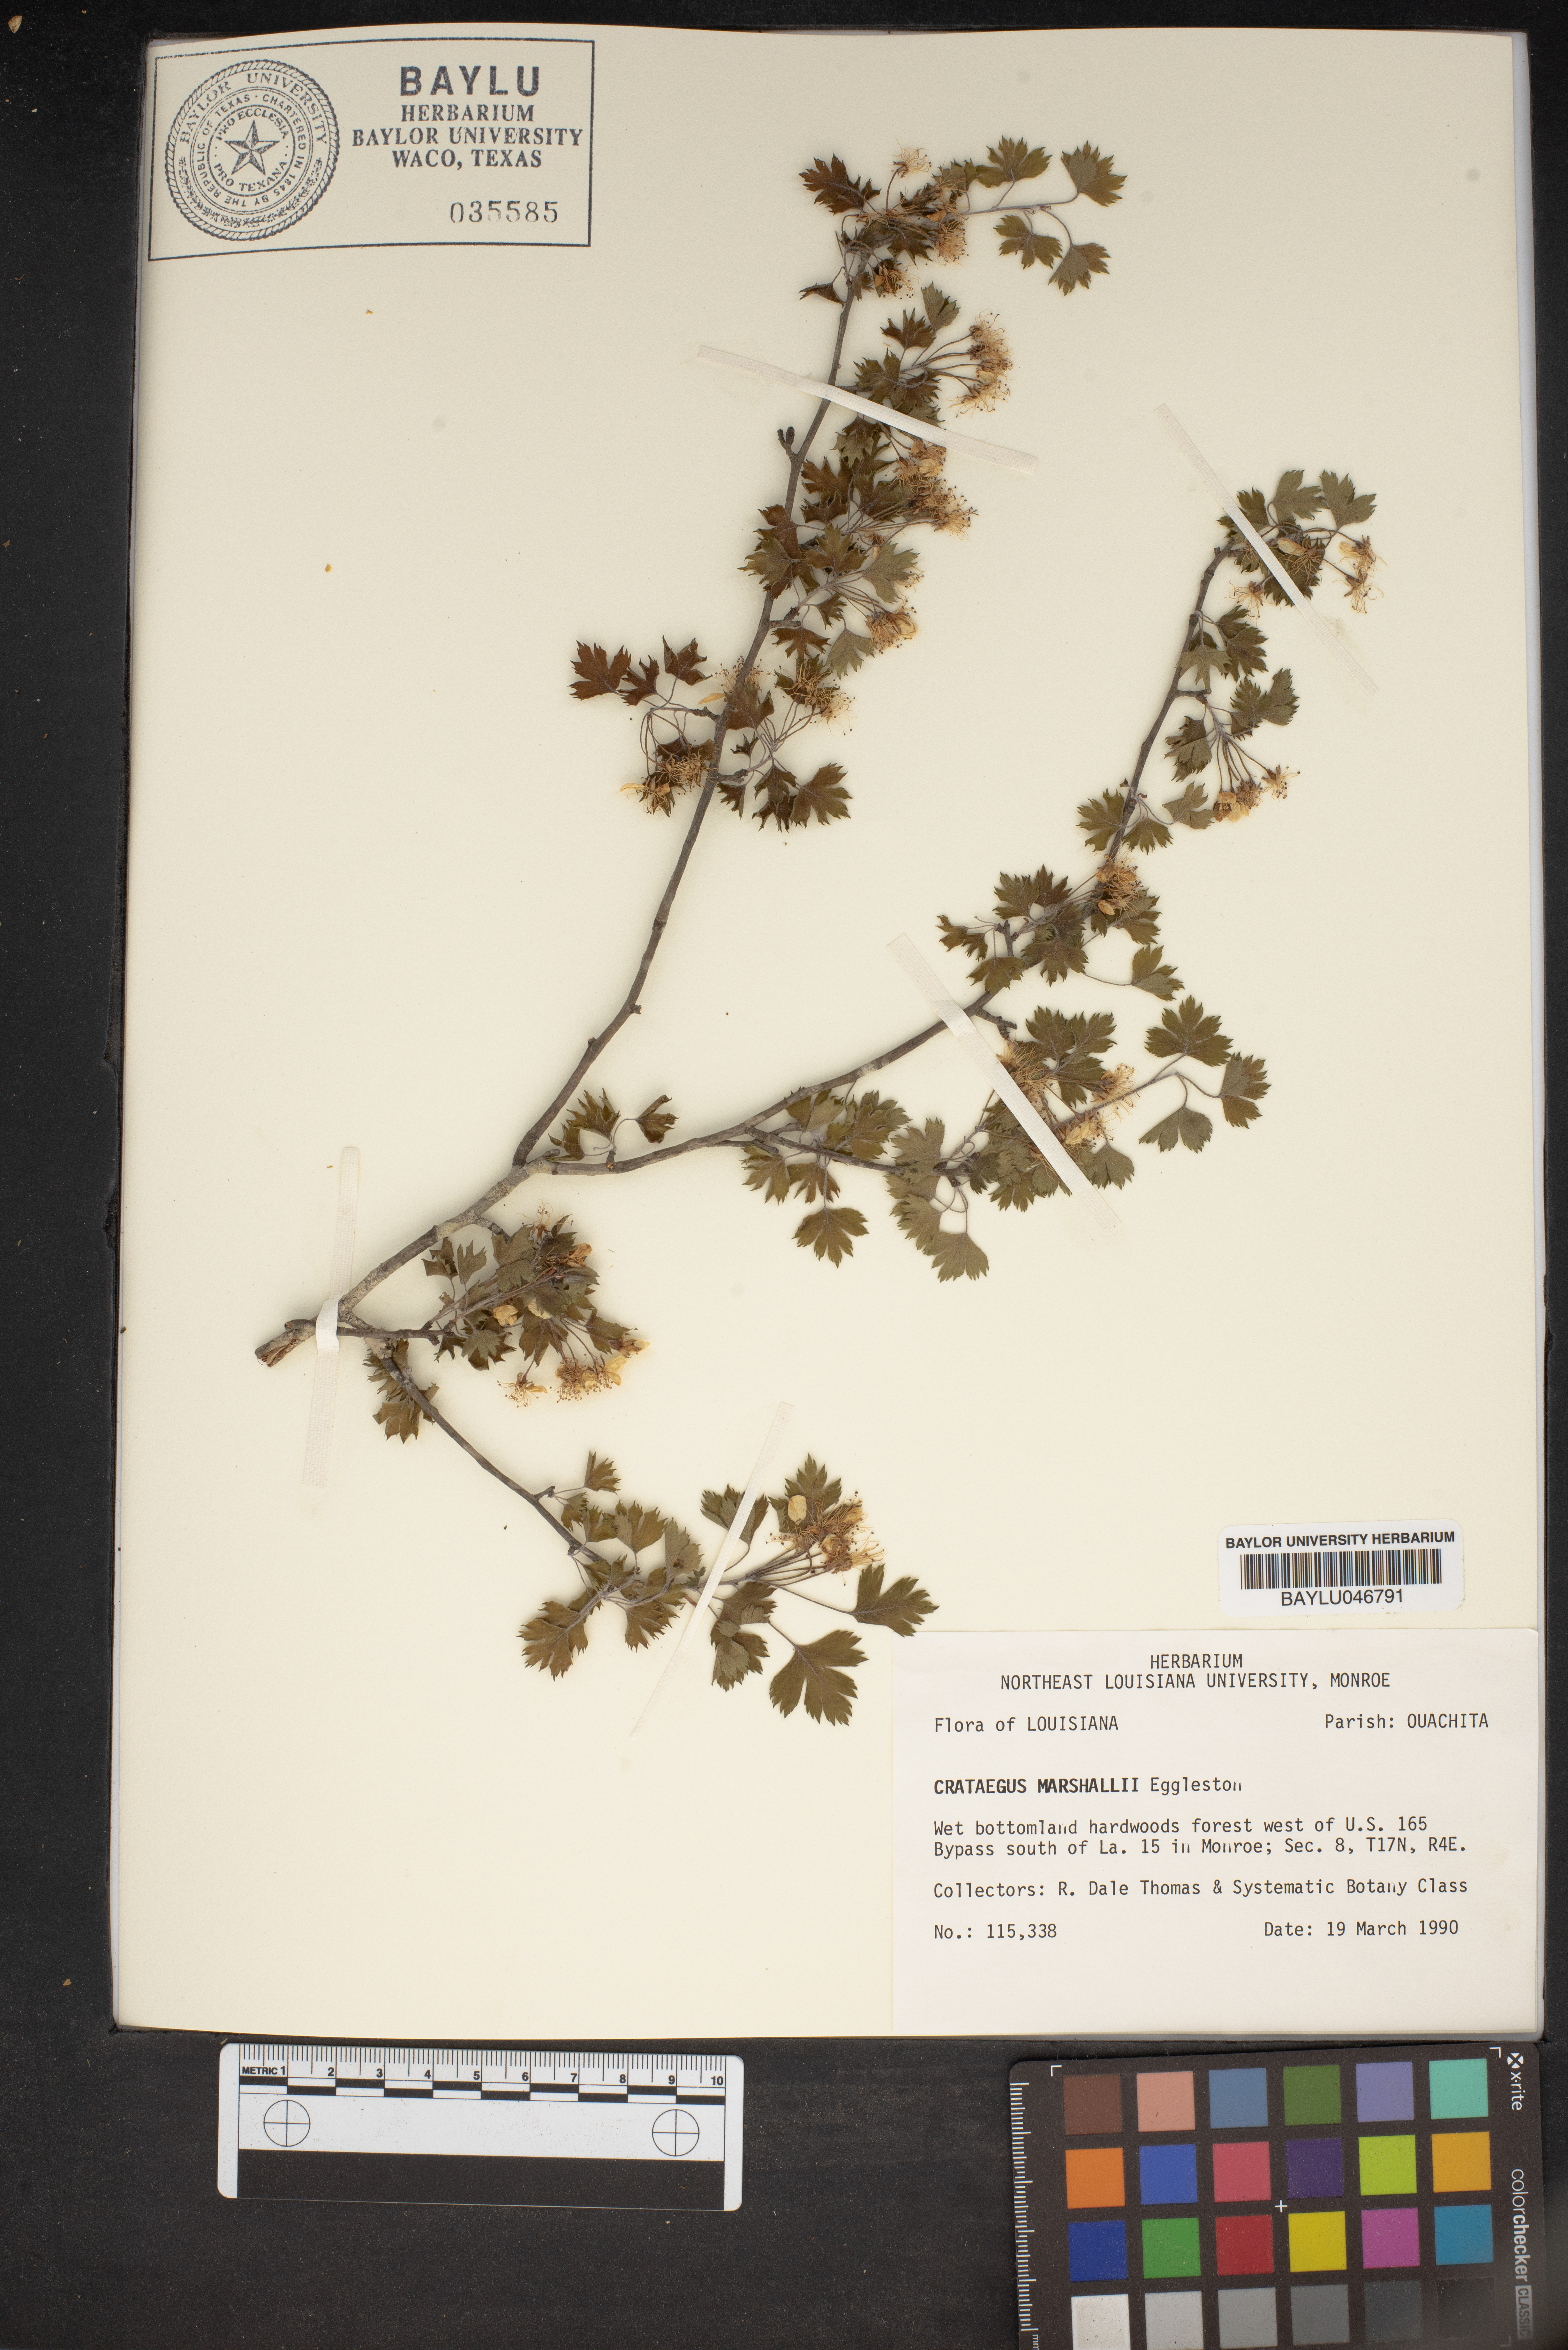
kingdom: Plantae
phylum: Tracheophyta
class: Magnoliopsida
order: Rosales
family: Rosaceae
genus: Crataegus
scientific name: Crataegus marshallii
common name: Parsley-hawthorn
